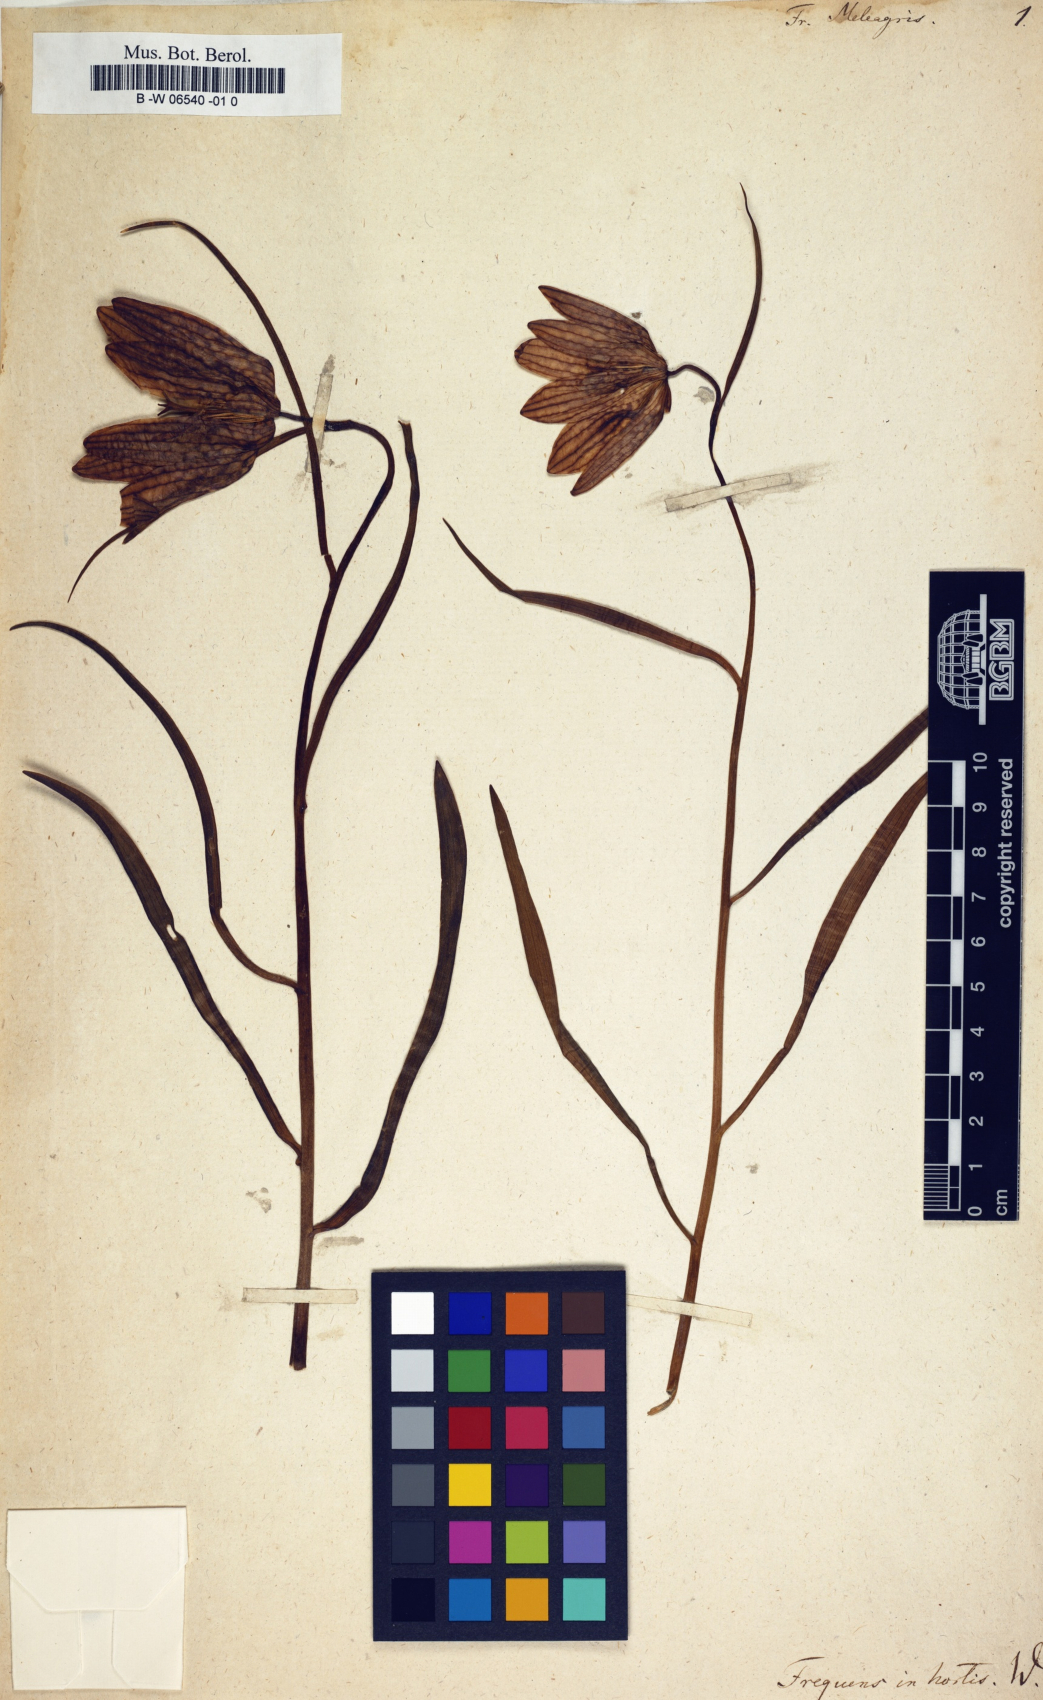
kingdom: Plantae
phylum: Tracheophyta
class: Liliopsida
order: Liliales
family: Liliaceae
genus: Fritillaria
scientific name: Fritillaria meleagris
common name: Fritillary
